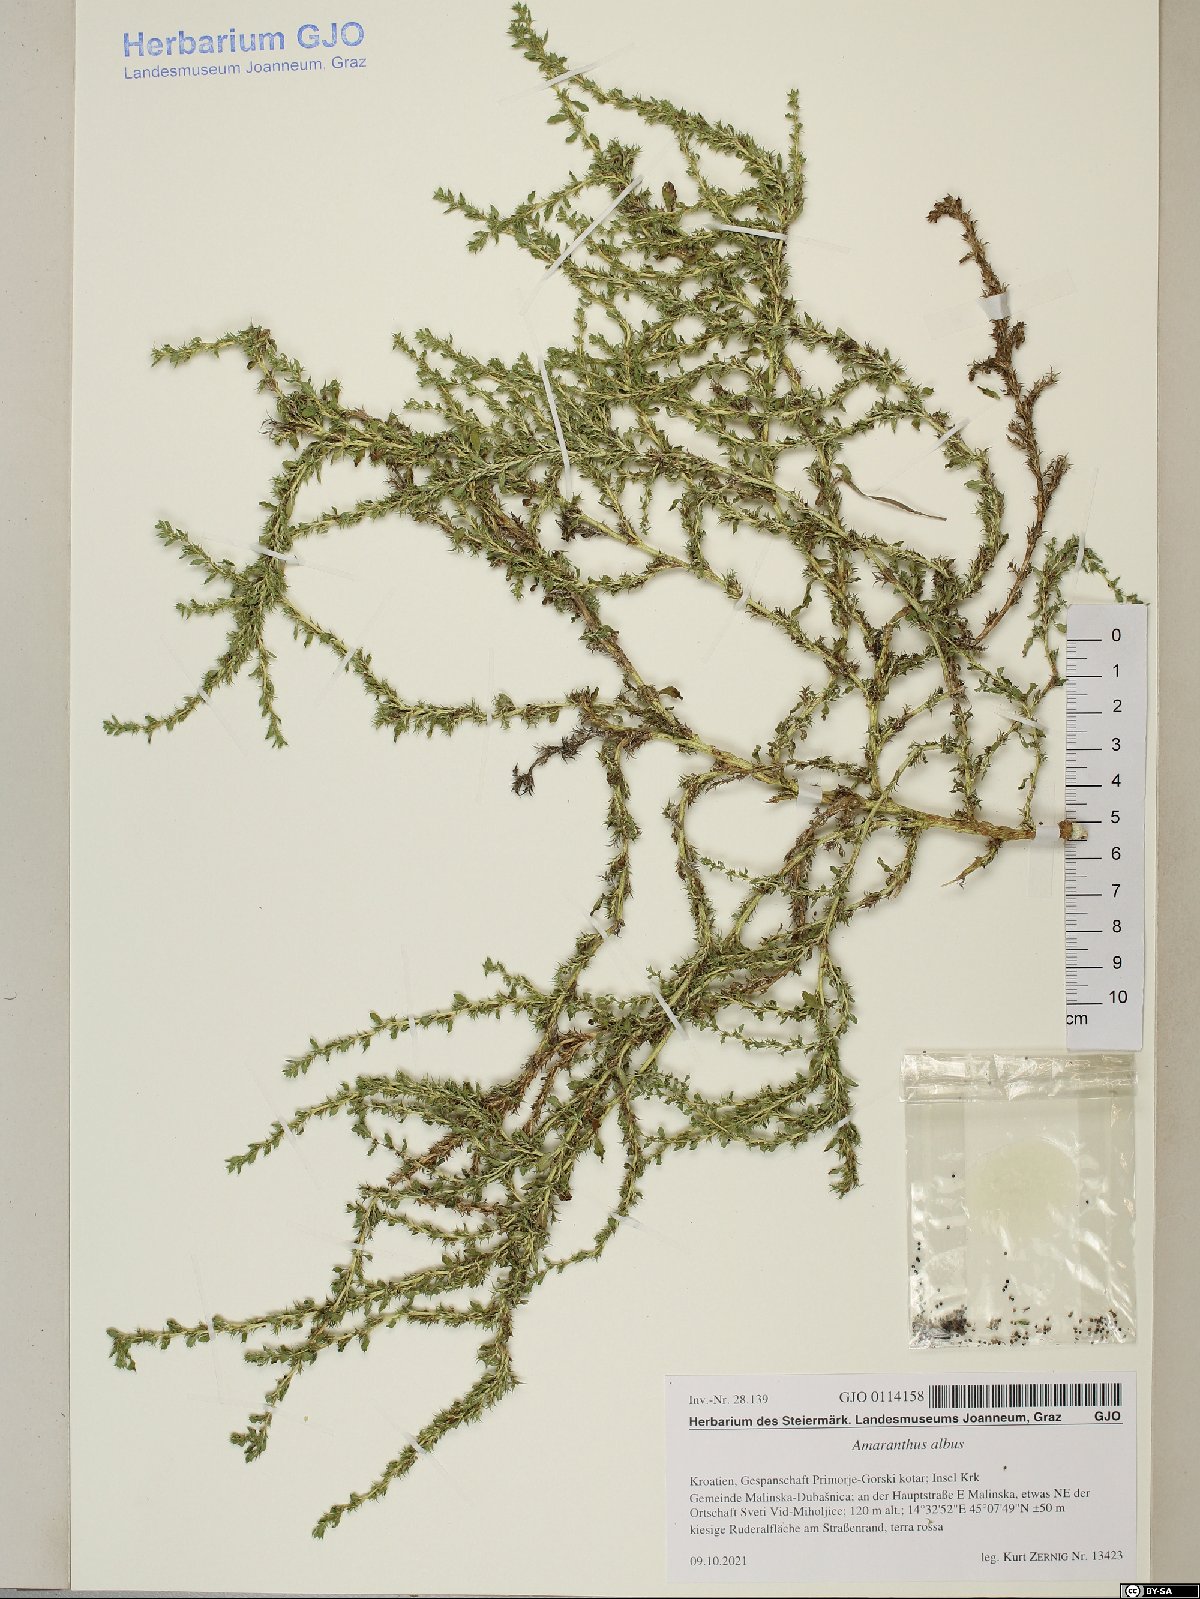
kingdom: Plantae
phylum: Tracheophyta
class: Magnoliopsida
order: Caryophyllales
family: Amaranthaceae
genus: Amaranthus
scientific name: Amaranthus albus
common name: White pigweed
